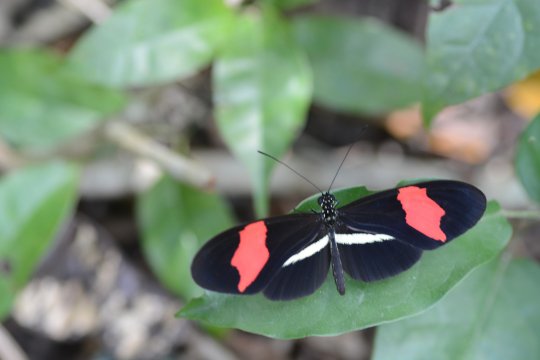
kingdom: Animalia
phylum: Arthropoda
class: Insecta
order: Lepidoptera
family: Nymphalidae
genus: Heliconius
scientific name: Heliconius erato
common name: Erato Heliconian
